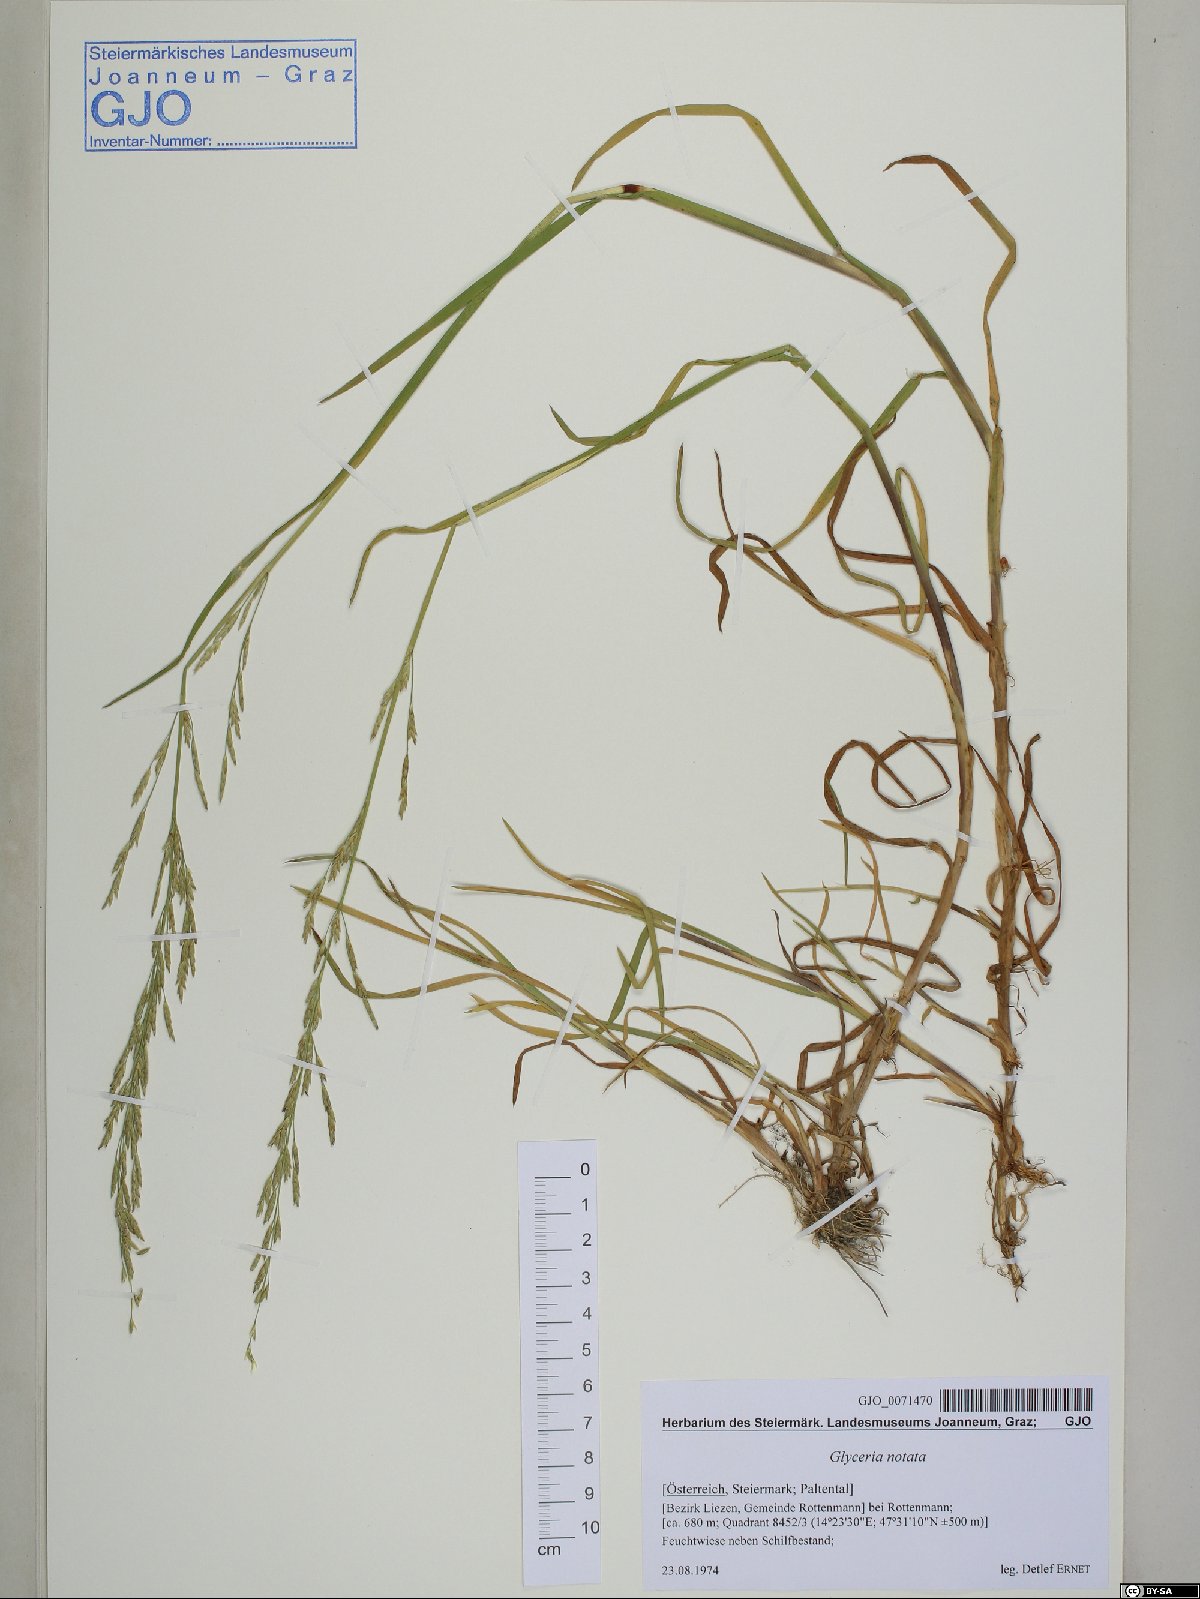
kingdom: Plantae
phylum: Tracheophyta
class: Liliopsida
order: Poales
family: Poaceae
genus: Glyceria
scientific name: Glyceria notata
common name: Plicate sweet-grass
